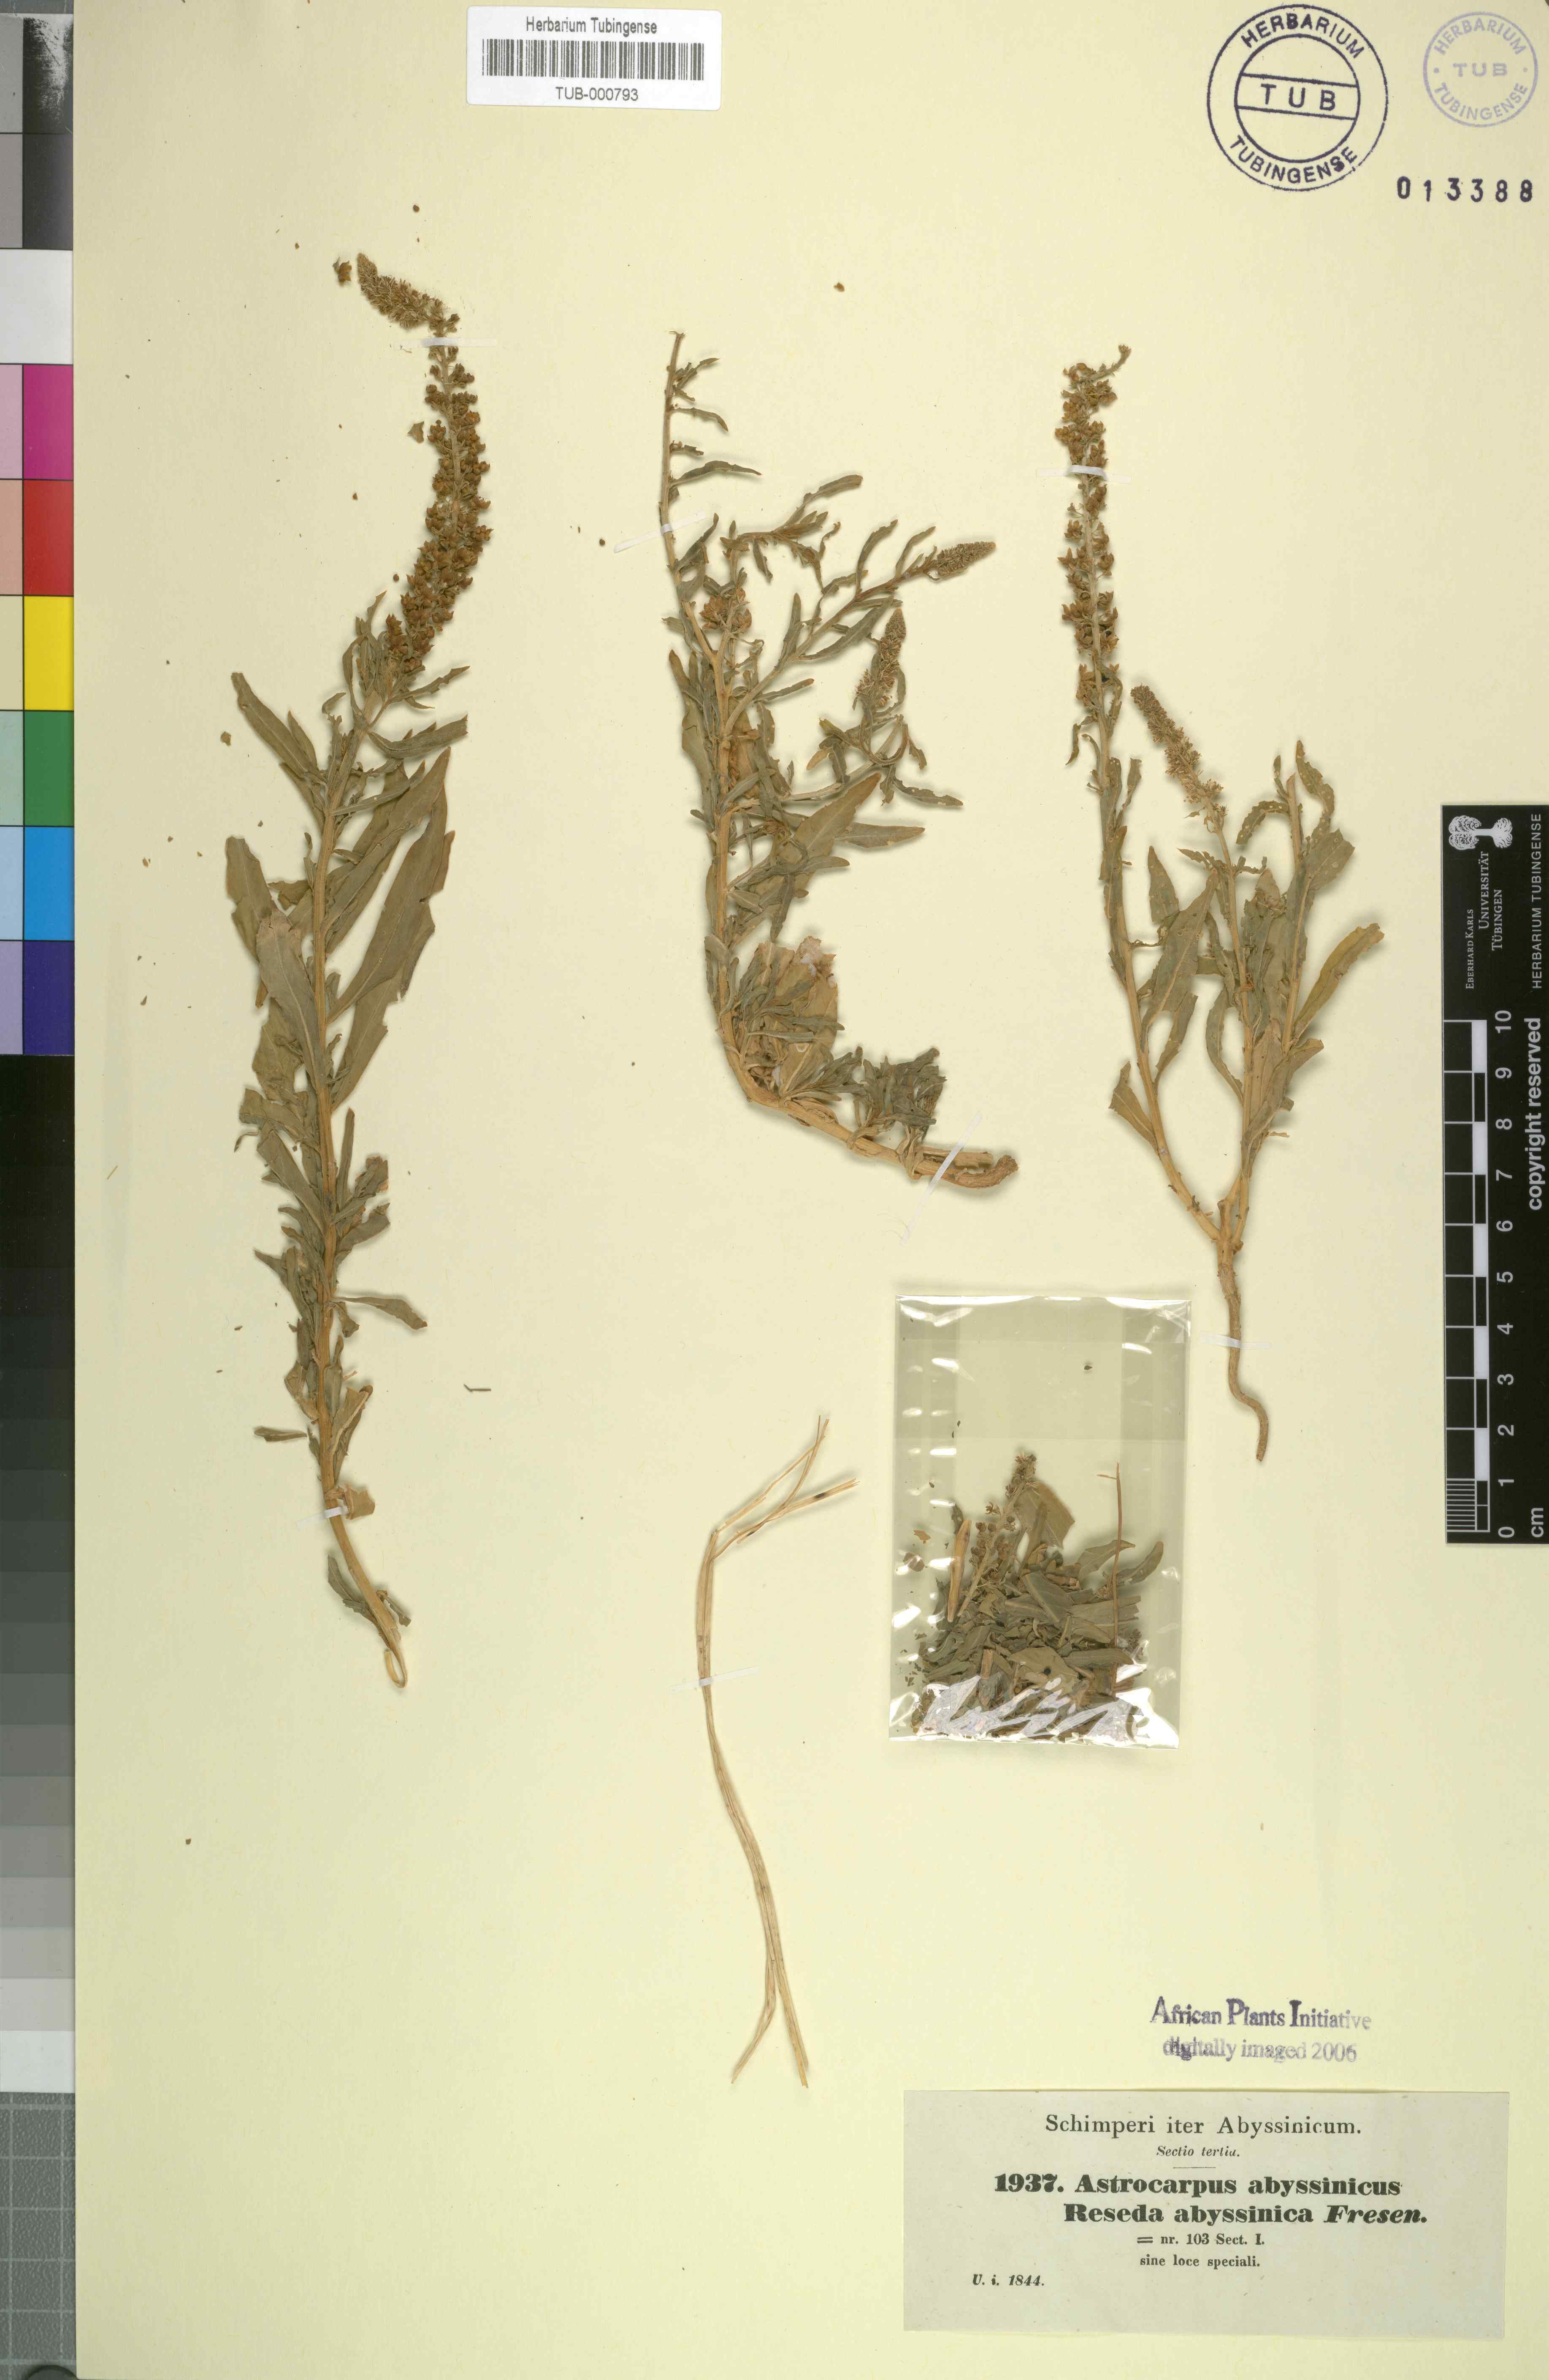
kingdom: Plantae
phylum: Tracheophyta
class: Magnoliopsida
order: Brassicales
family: Resedaceae
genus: Caylusea
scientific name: Caylusea abyssinica
